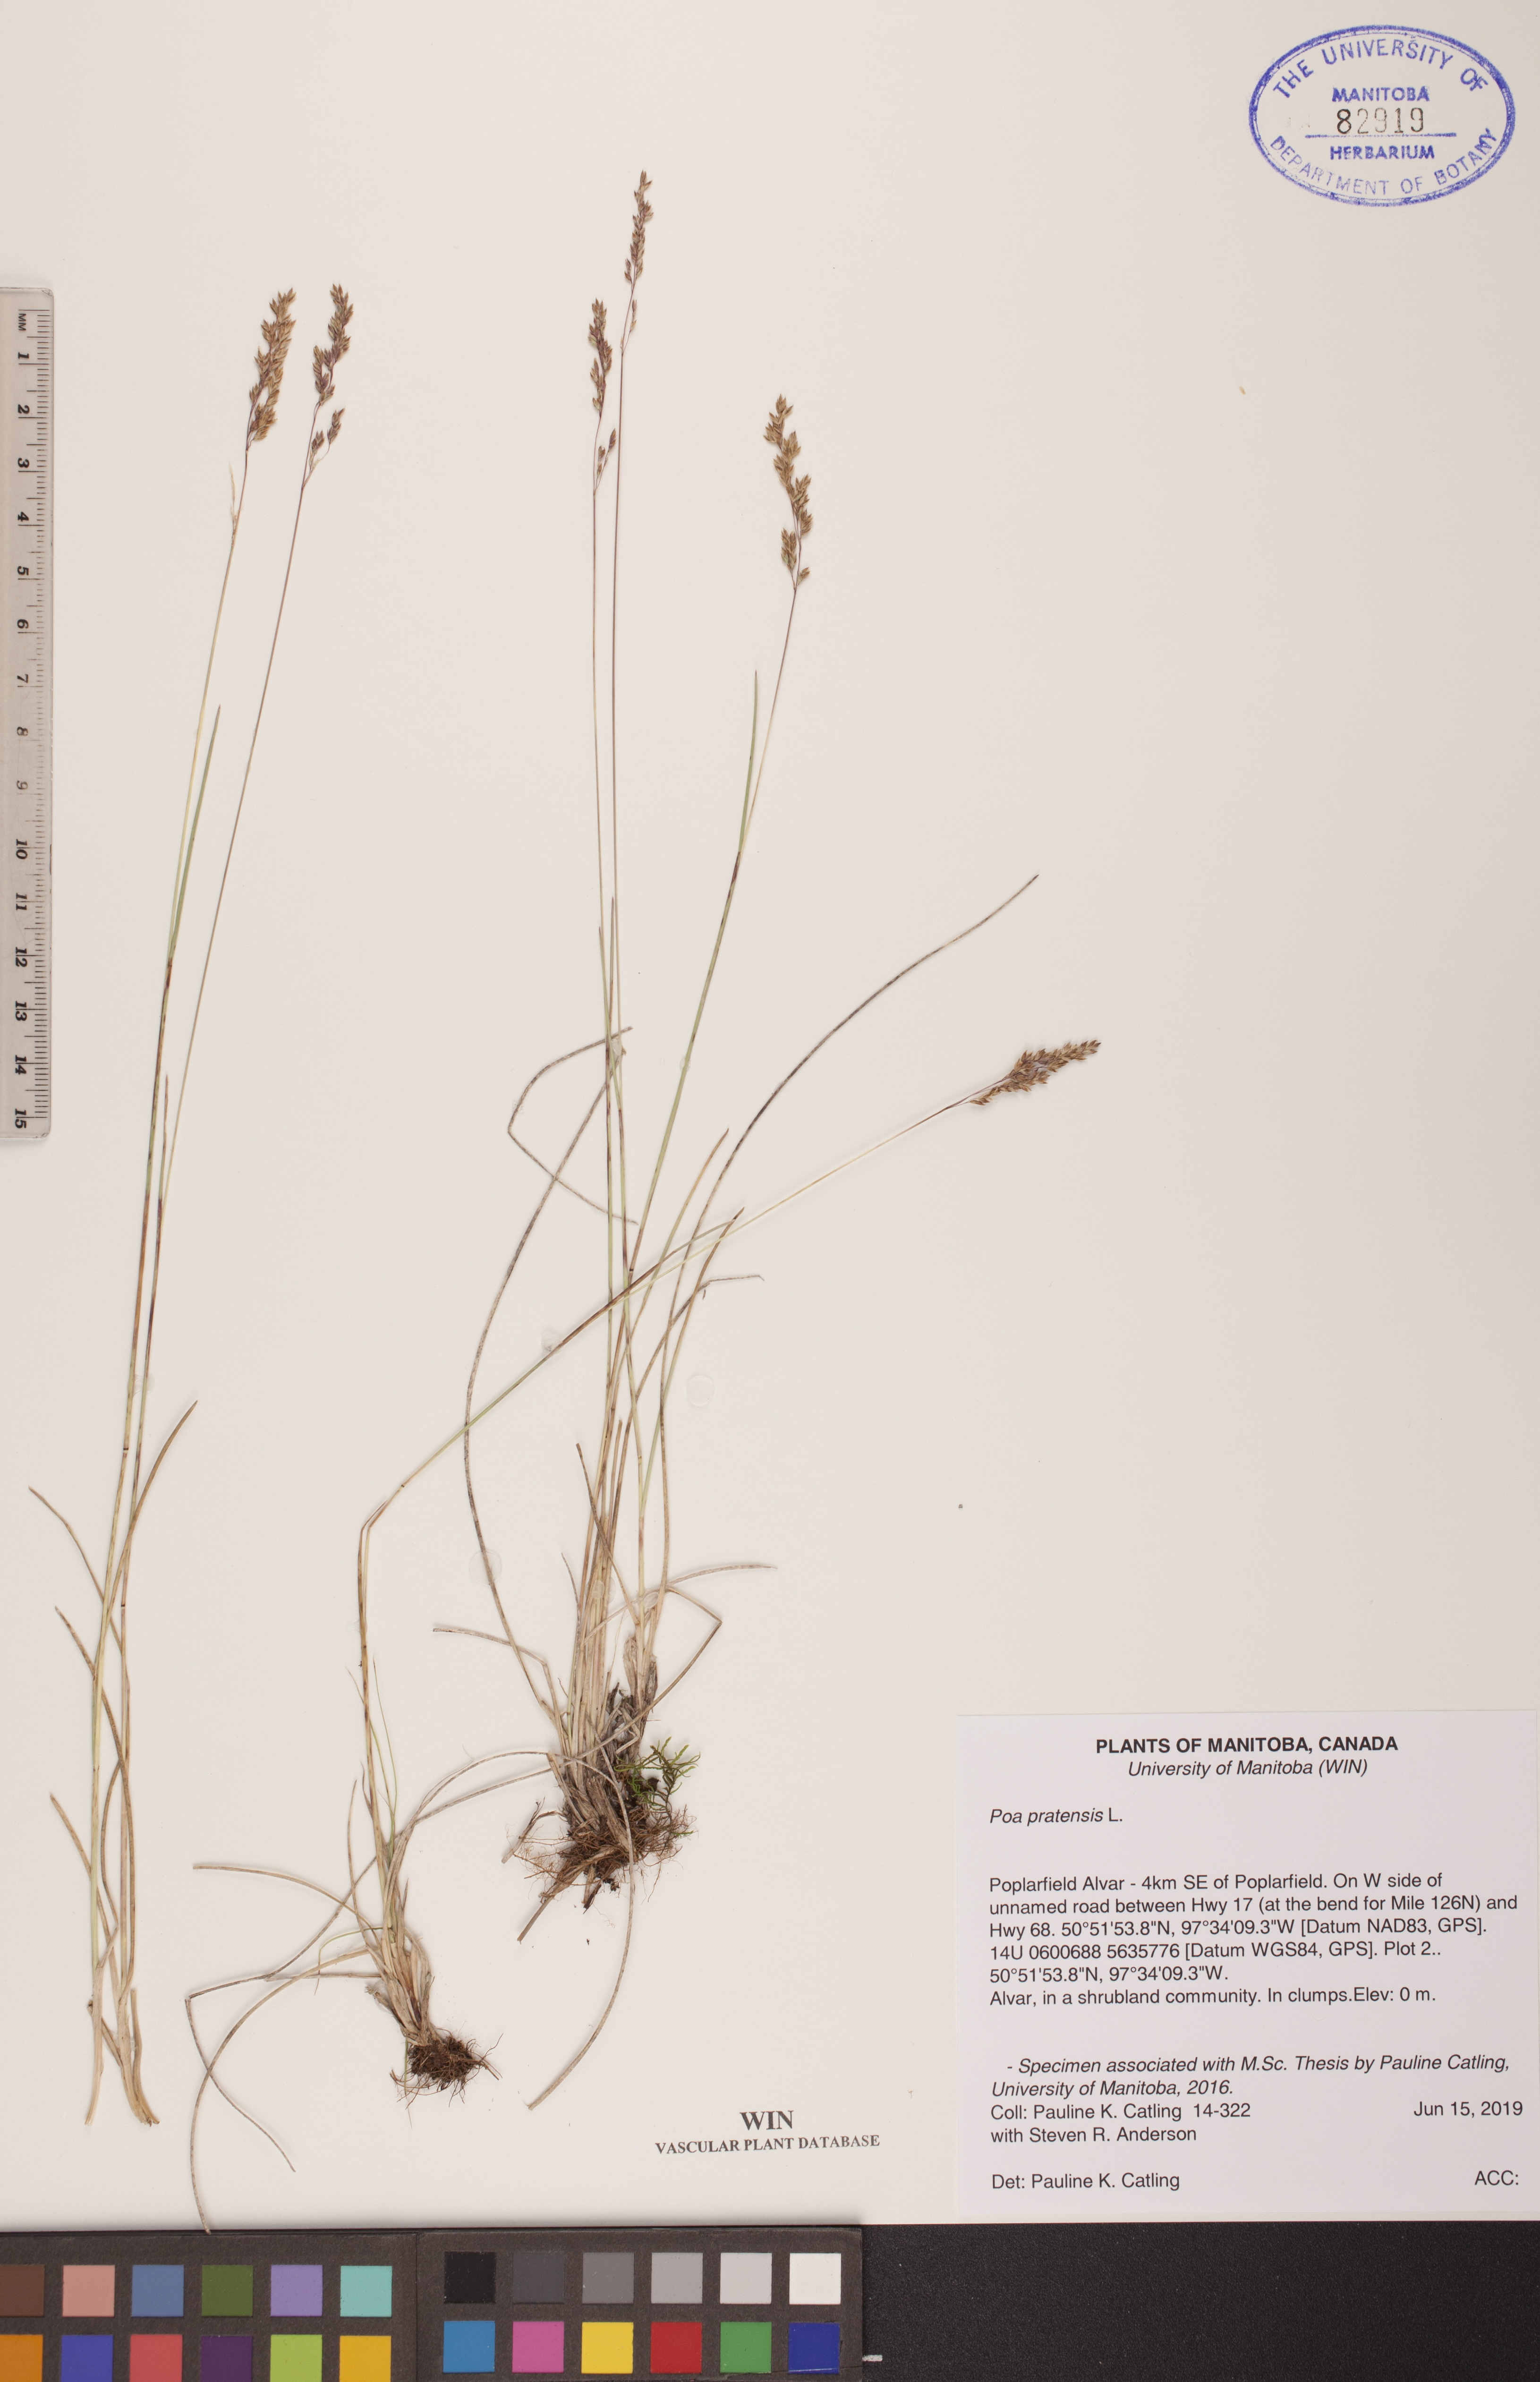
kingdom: Plantae
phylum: Tracheophyta
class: Liliopsida
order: Poales
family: Poaceae
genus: Poa
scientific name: Poa pratensis
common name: Kentucky bluegrass
